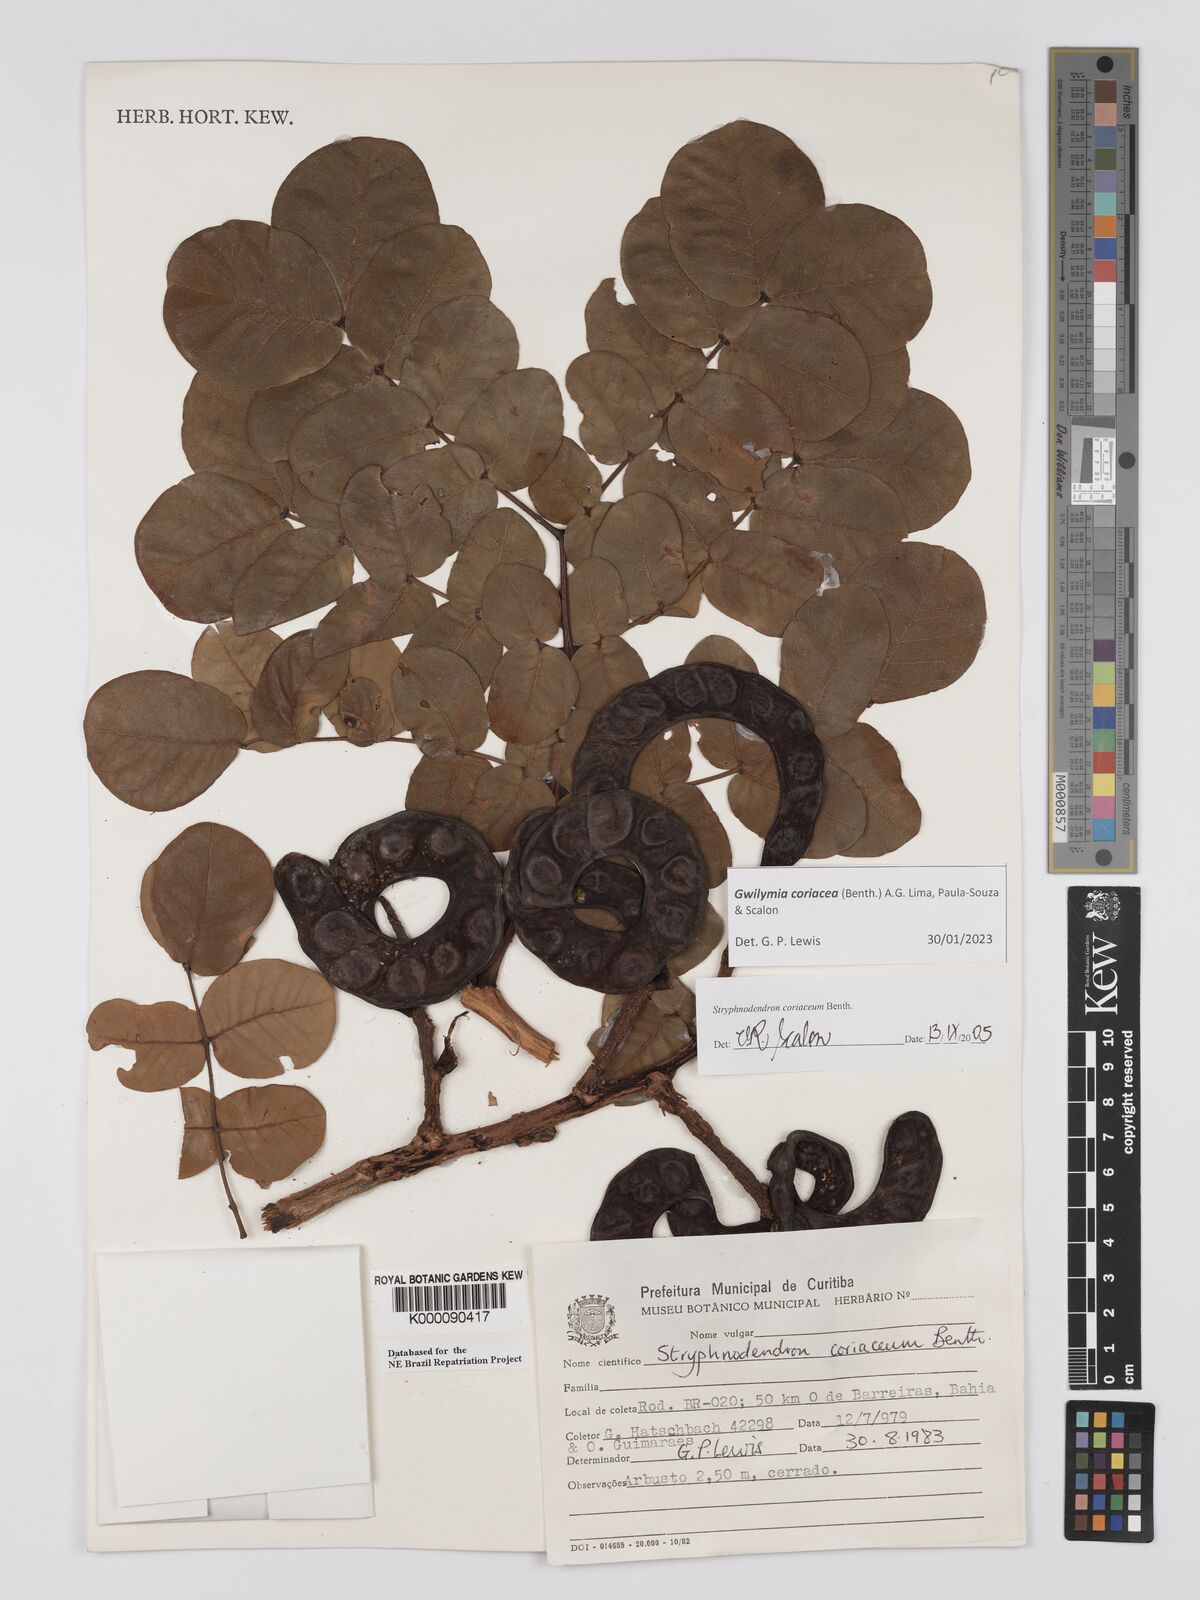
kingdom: Plantae
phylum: Tracheophyta
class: Magnoliopsida
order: Fabales
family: Fabaceae
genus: Stryphnodendron
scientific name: Stryphnodendron coriaceum
